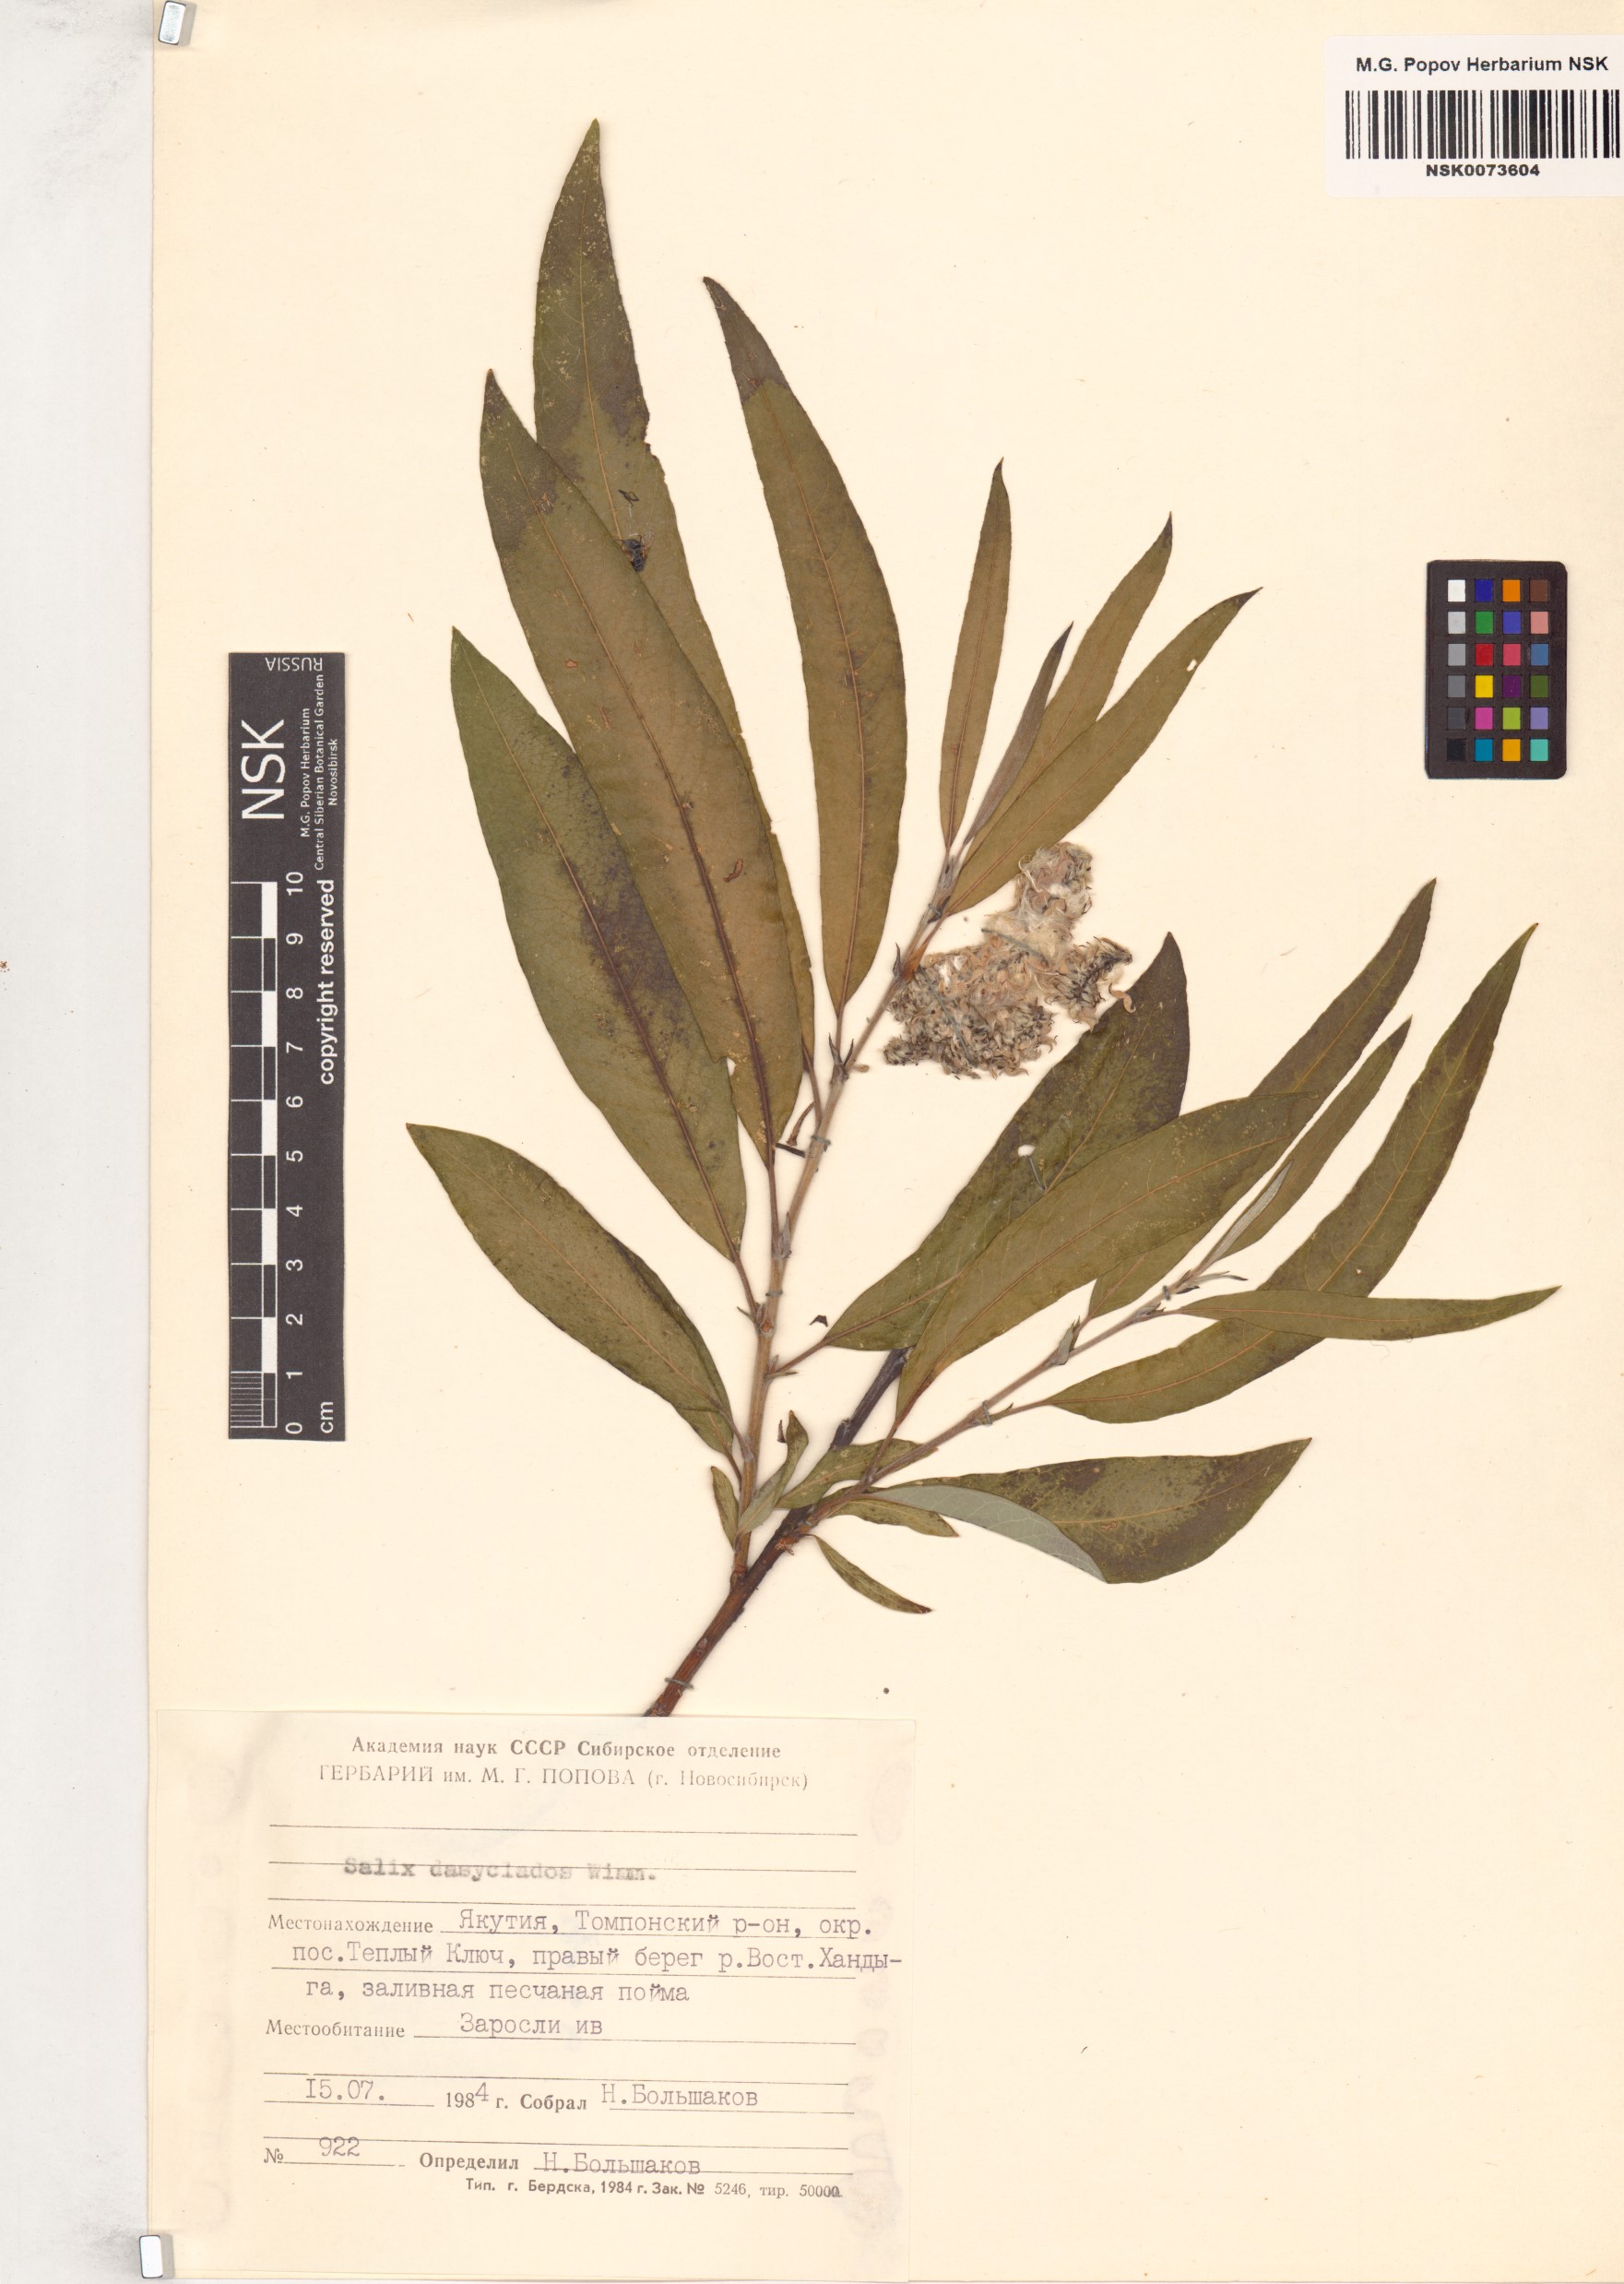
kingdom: Plantae
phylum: Tracheophyta
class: Magnoliopsida
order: Malpighiales
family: Salicaceae
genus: Salix
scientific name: Salix gmelinii
